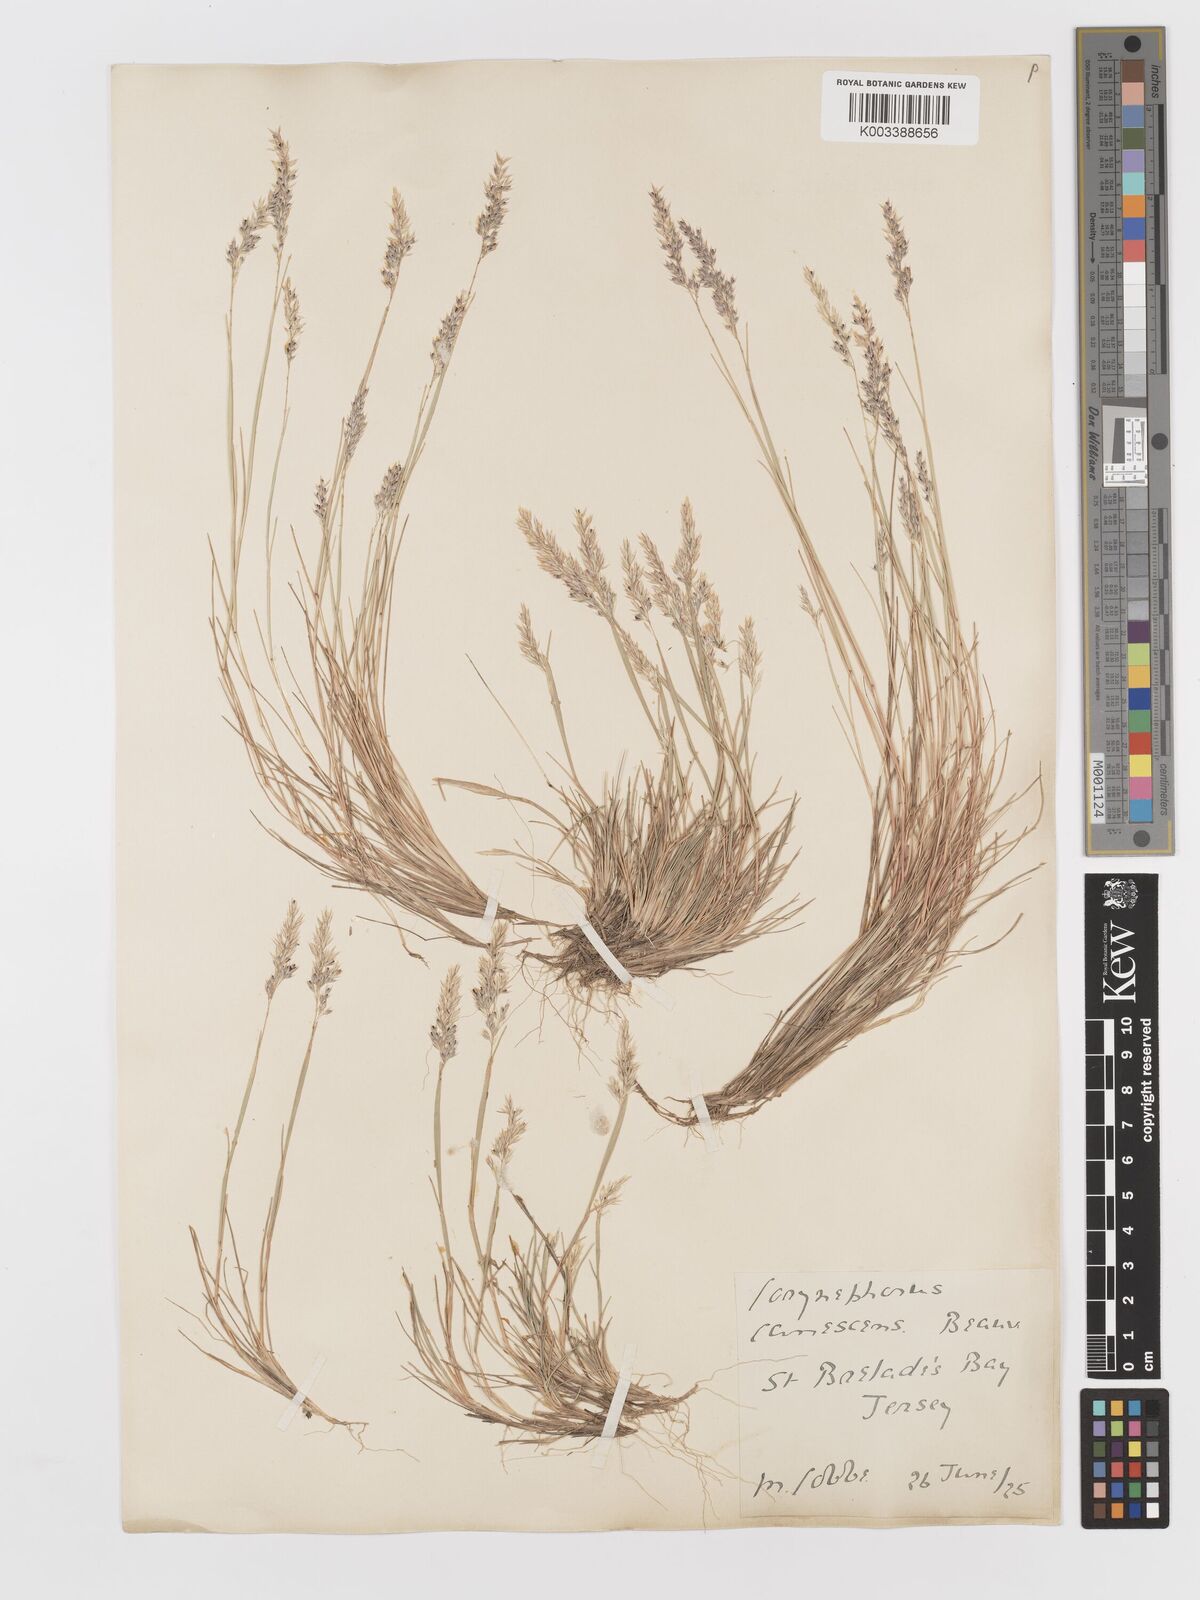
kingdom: Plantae
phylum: Tracheophyta
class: Liliopsida
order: Poales
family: Poaceae
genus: Corynephorus
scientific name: Corynephorus canescens
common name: Grey hair-grass
